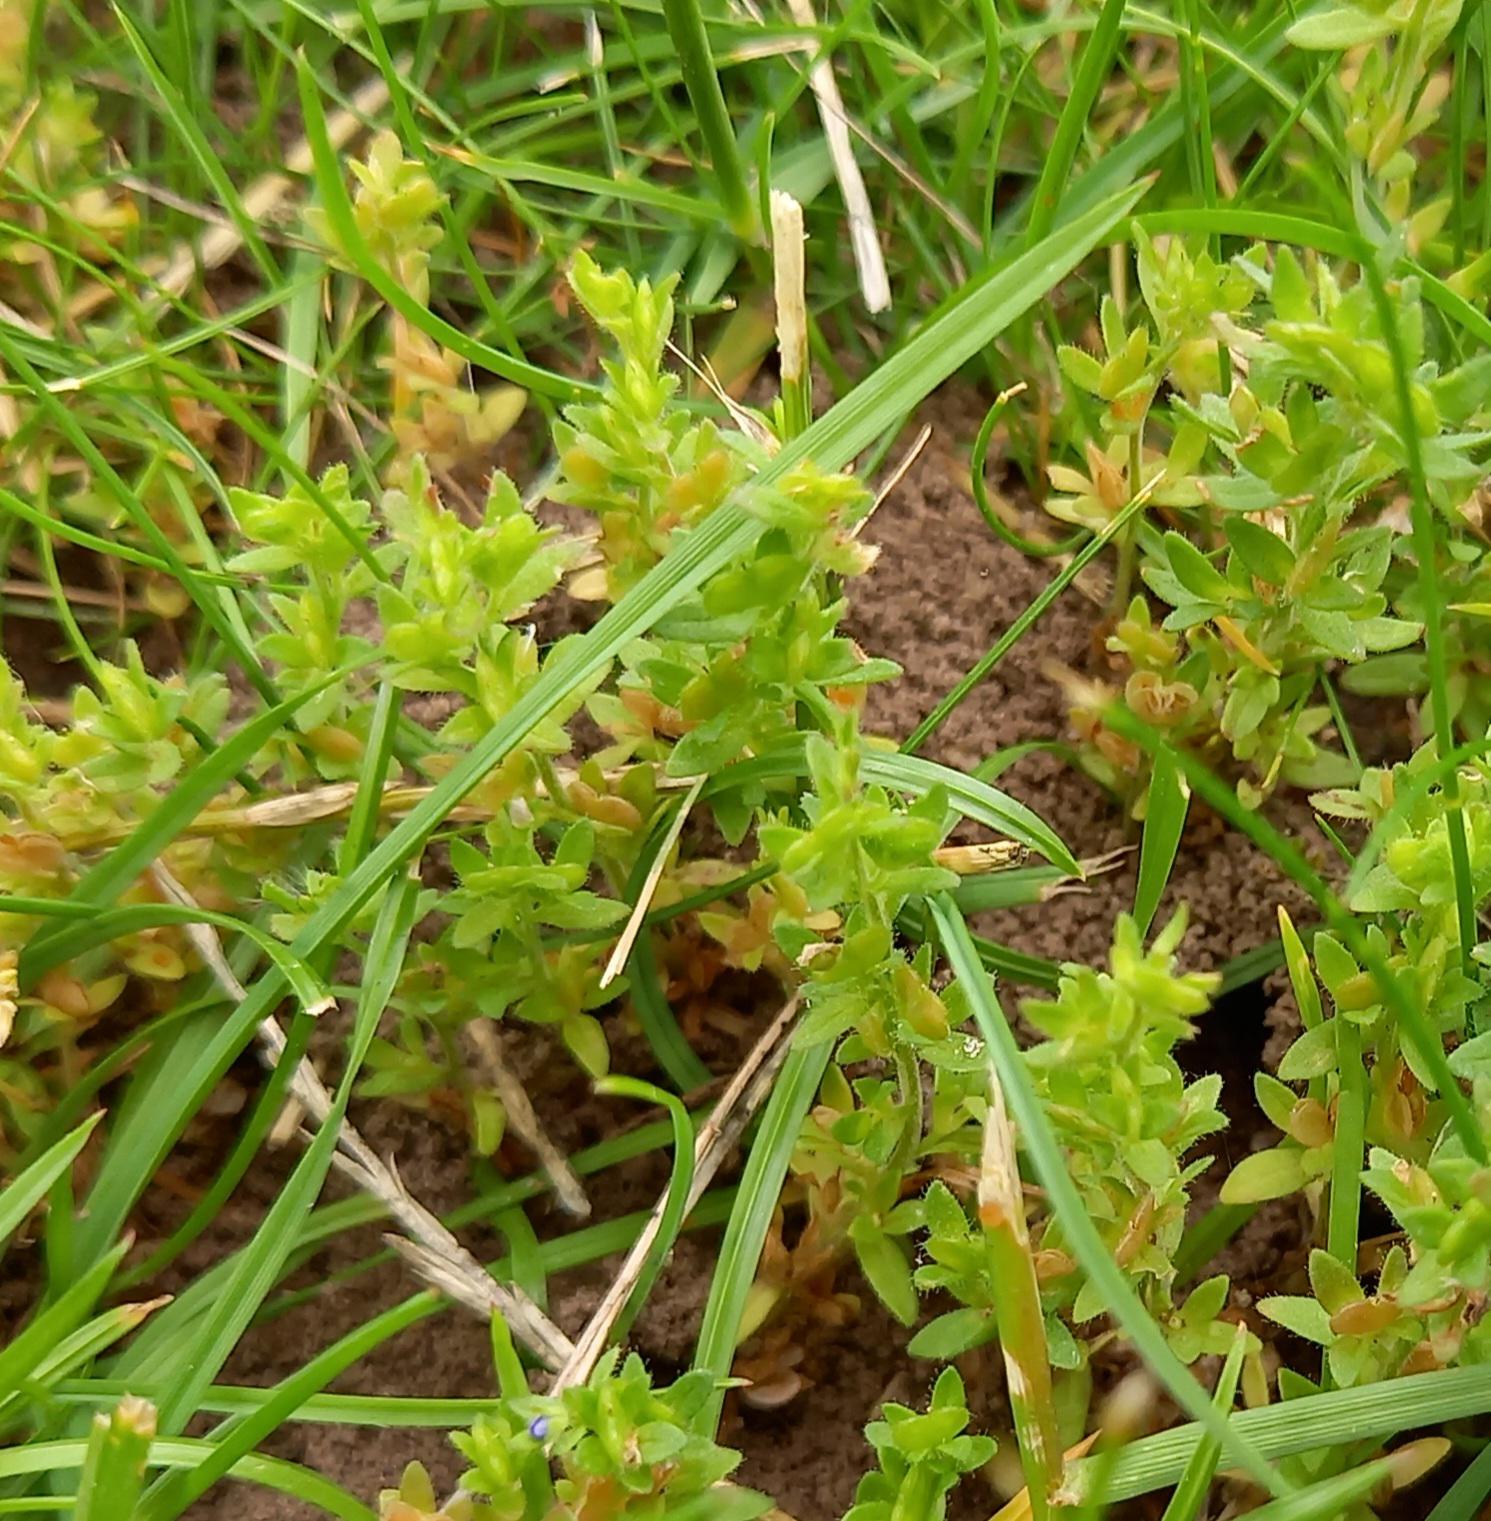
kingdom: Plantae
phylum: Tracheophyta
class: Magnoliopsida
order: Lamiales
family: Plantaginaceae
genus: Veronica
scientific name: Veronica arvensis
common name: Mark-ærenpris
